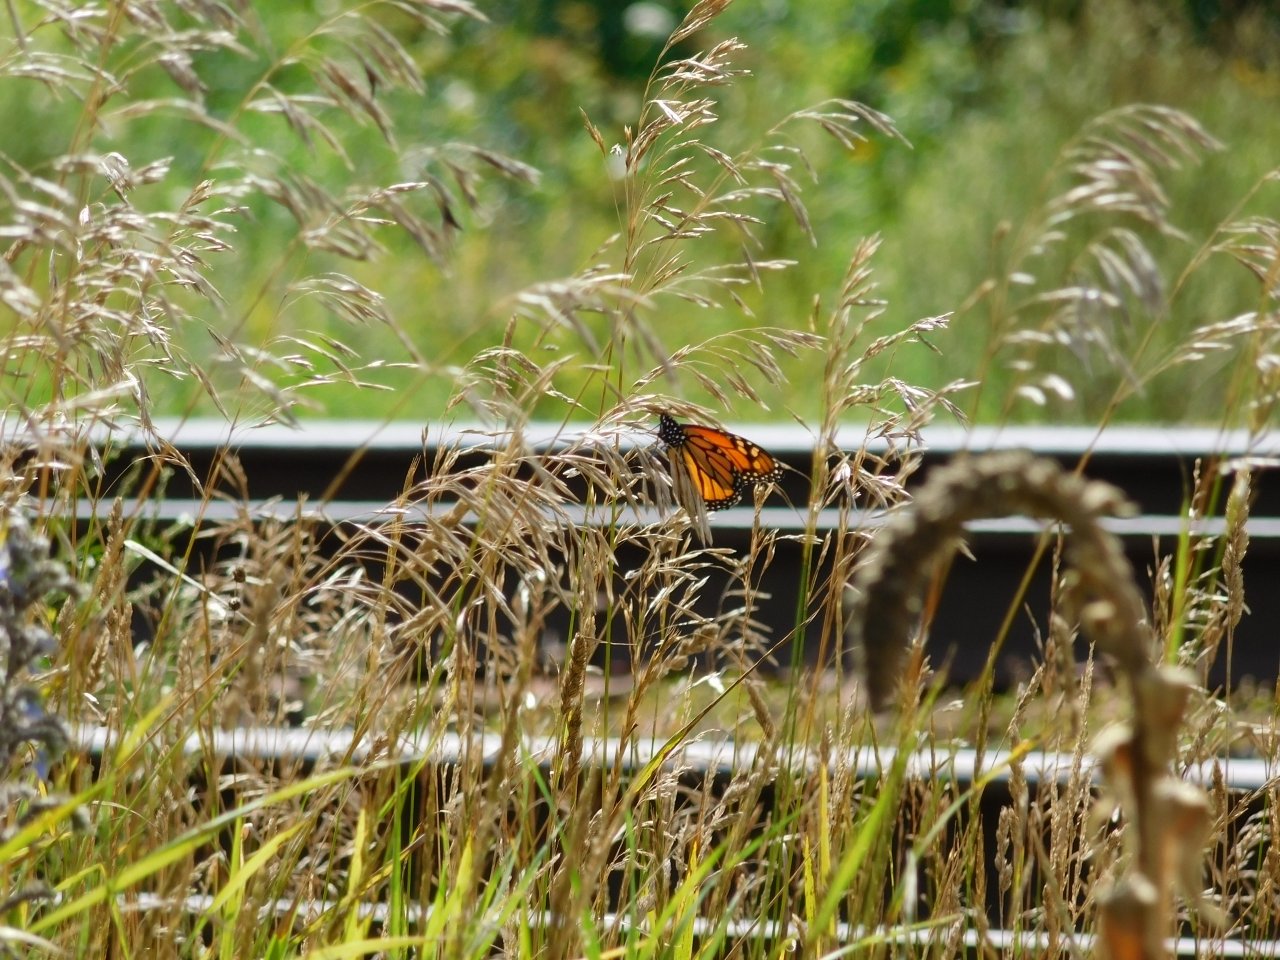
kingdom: Animalia
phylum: Arthropoda
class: Insecta
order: Lepidoptera
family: Nymphalidae
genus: Danaus
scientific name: Danaus plexippus
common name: Monarch
